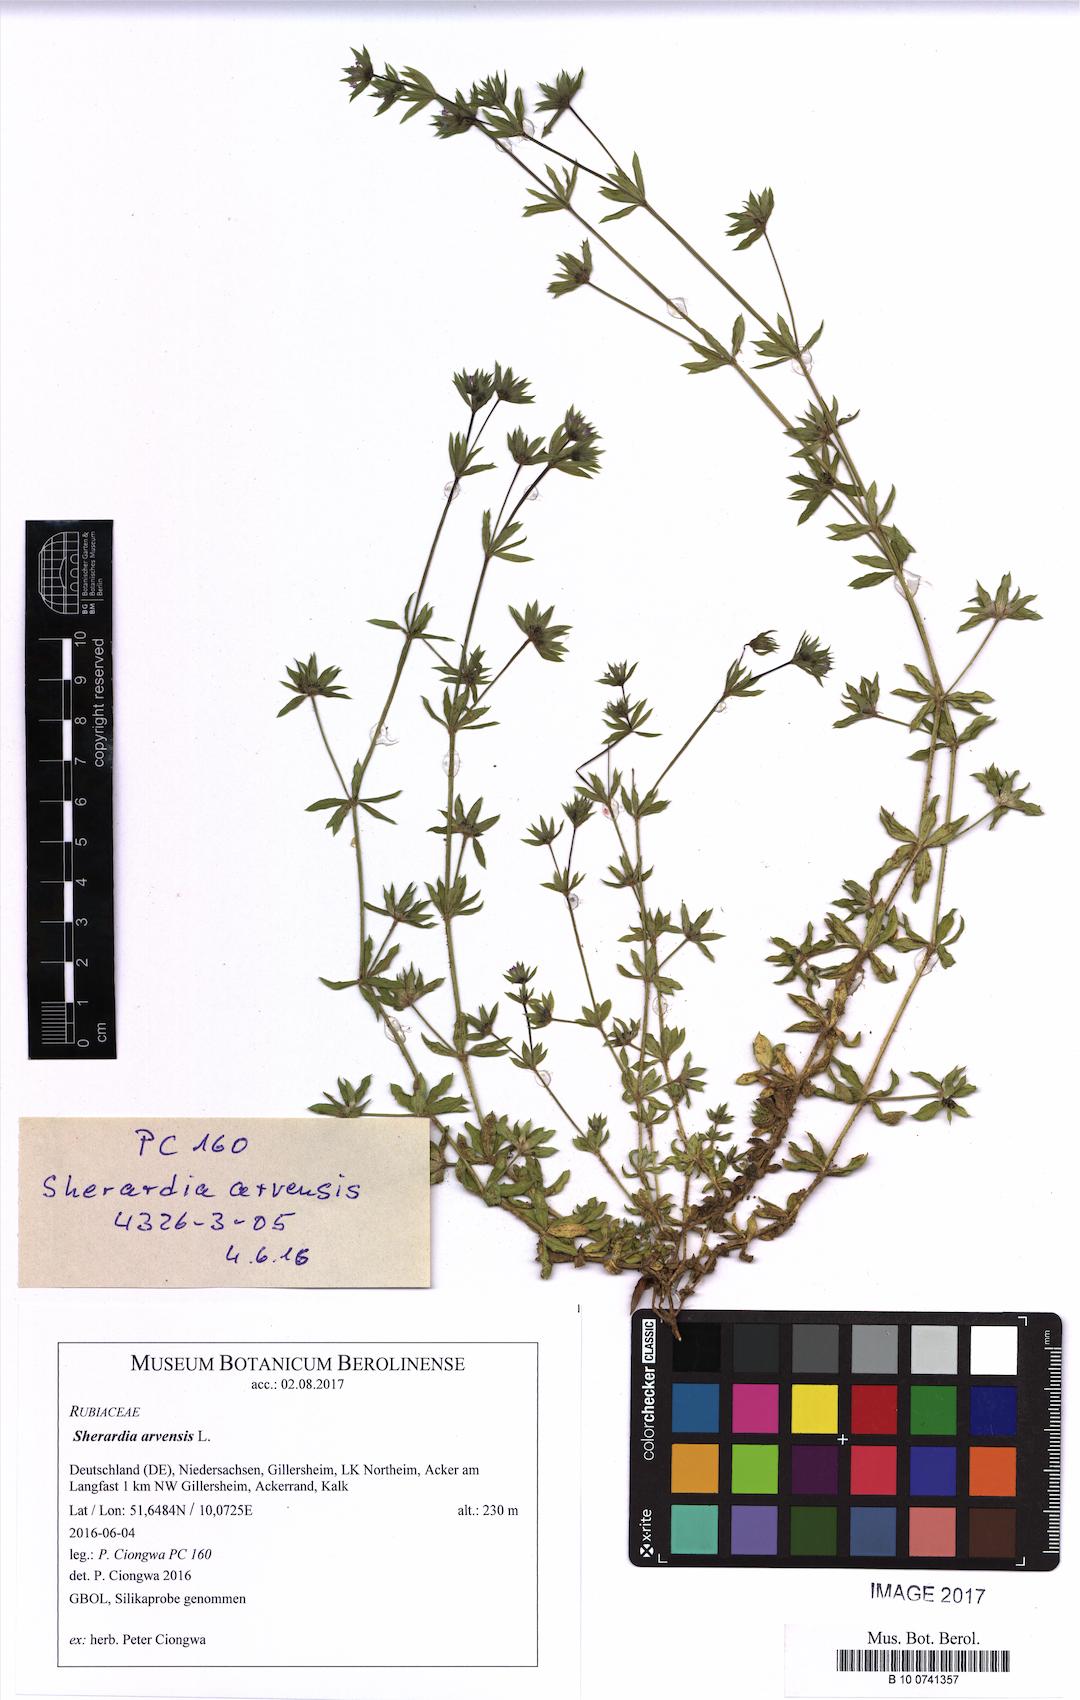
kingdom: Plantae
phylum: Tracheophyta
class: Magnoliopsida
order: Gentianales
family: Rubiaceae
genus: Sherardia
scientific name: Sherardia arvensis
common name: Field madder
